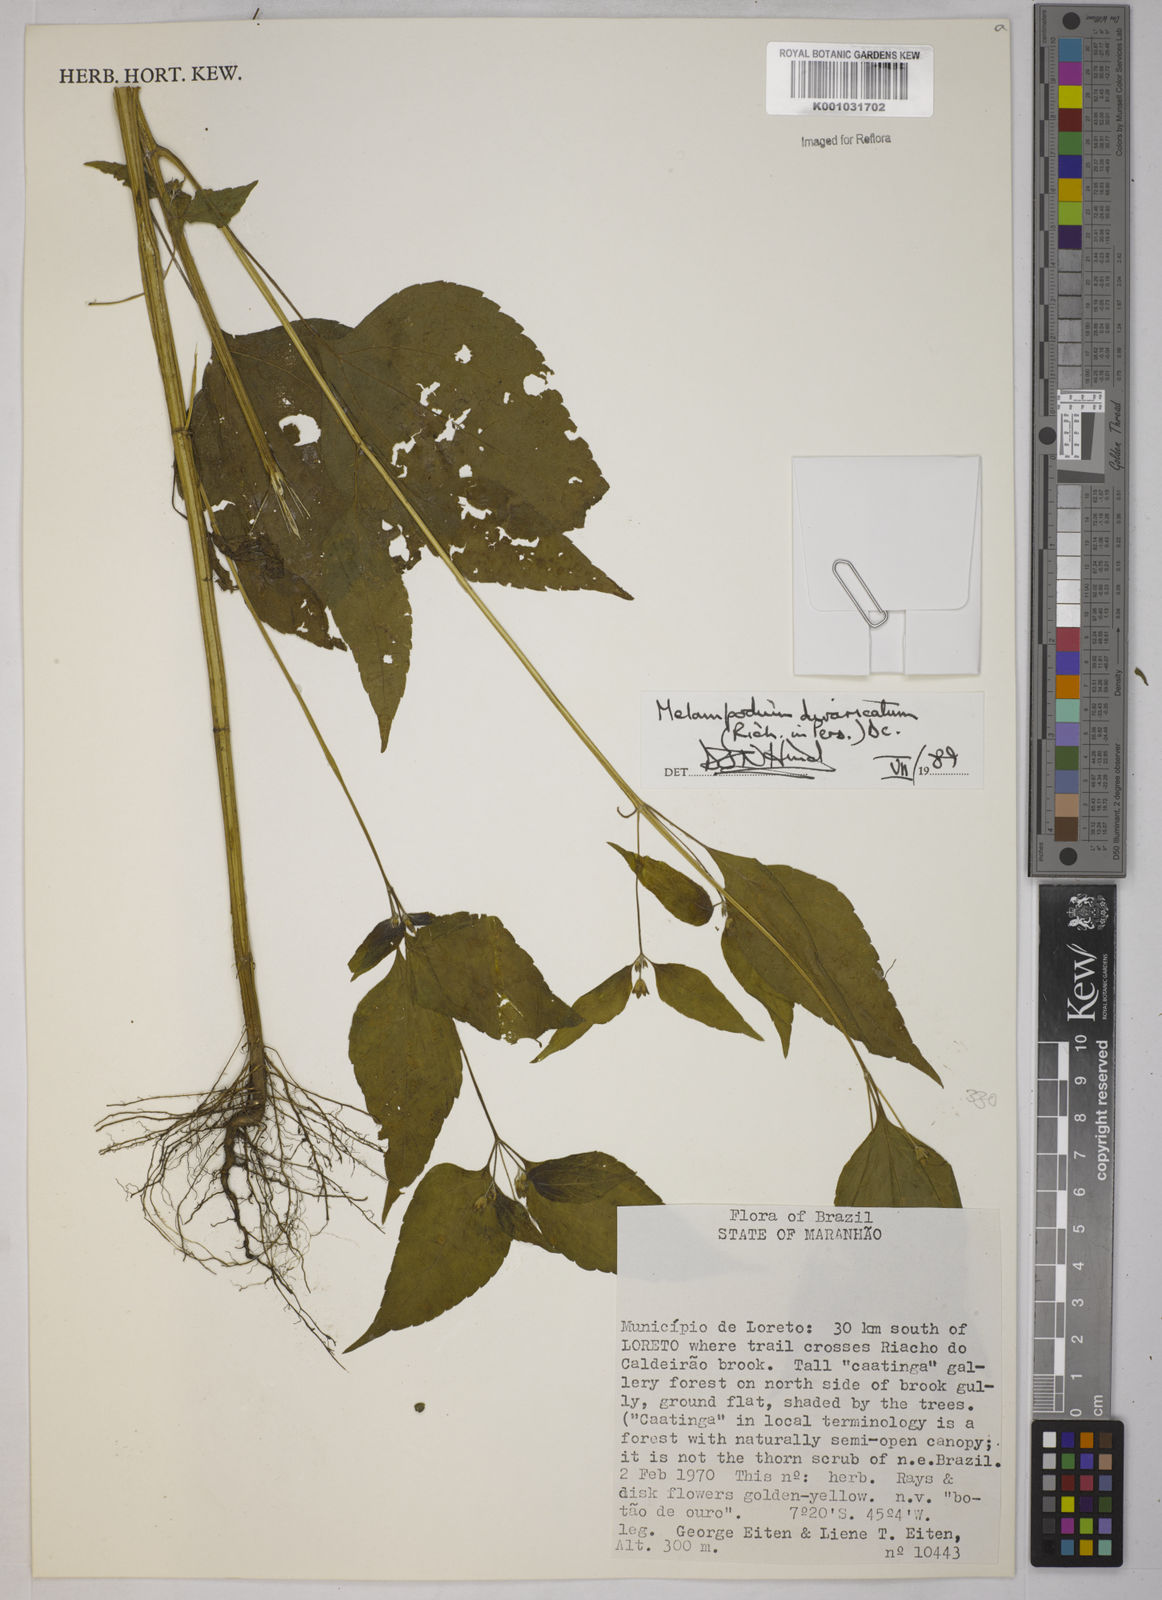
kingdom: Plantae
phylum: Tracheophyta
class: Magnoliopsida
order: Asterales
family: Asteraceae
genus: Melampodium
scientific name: Melampodium divaricatum
